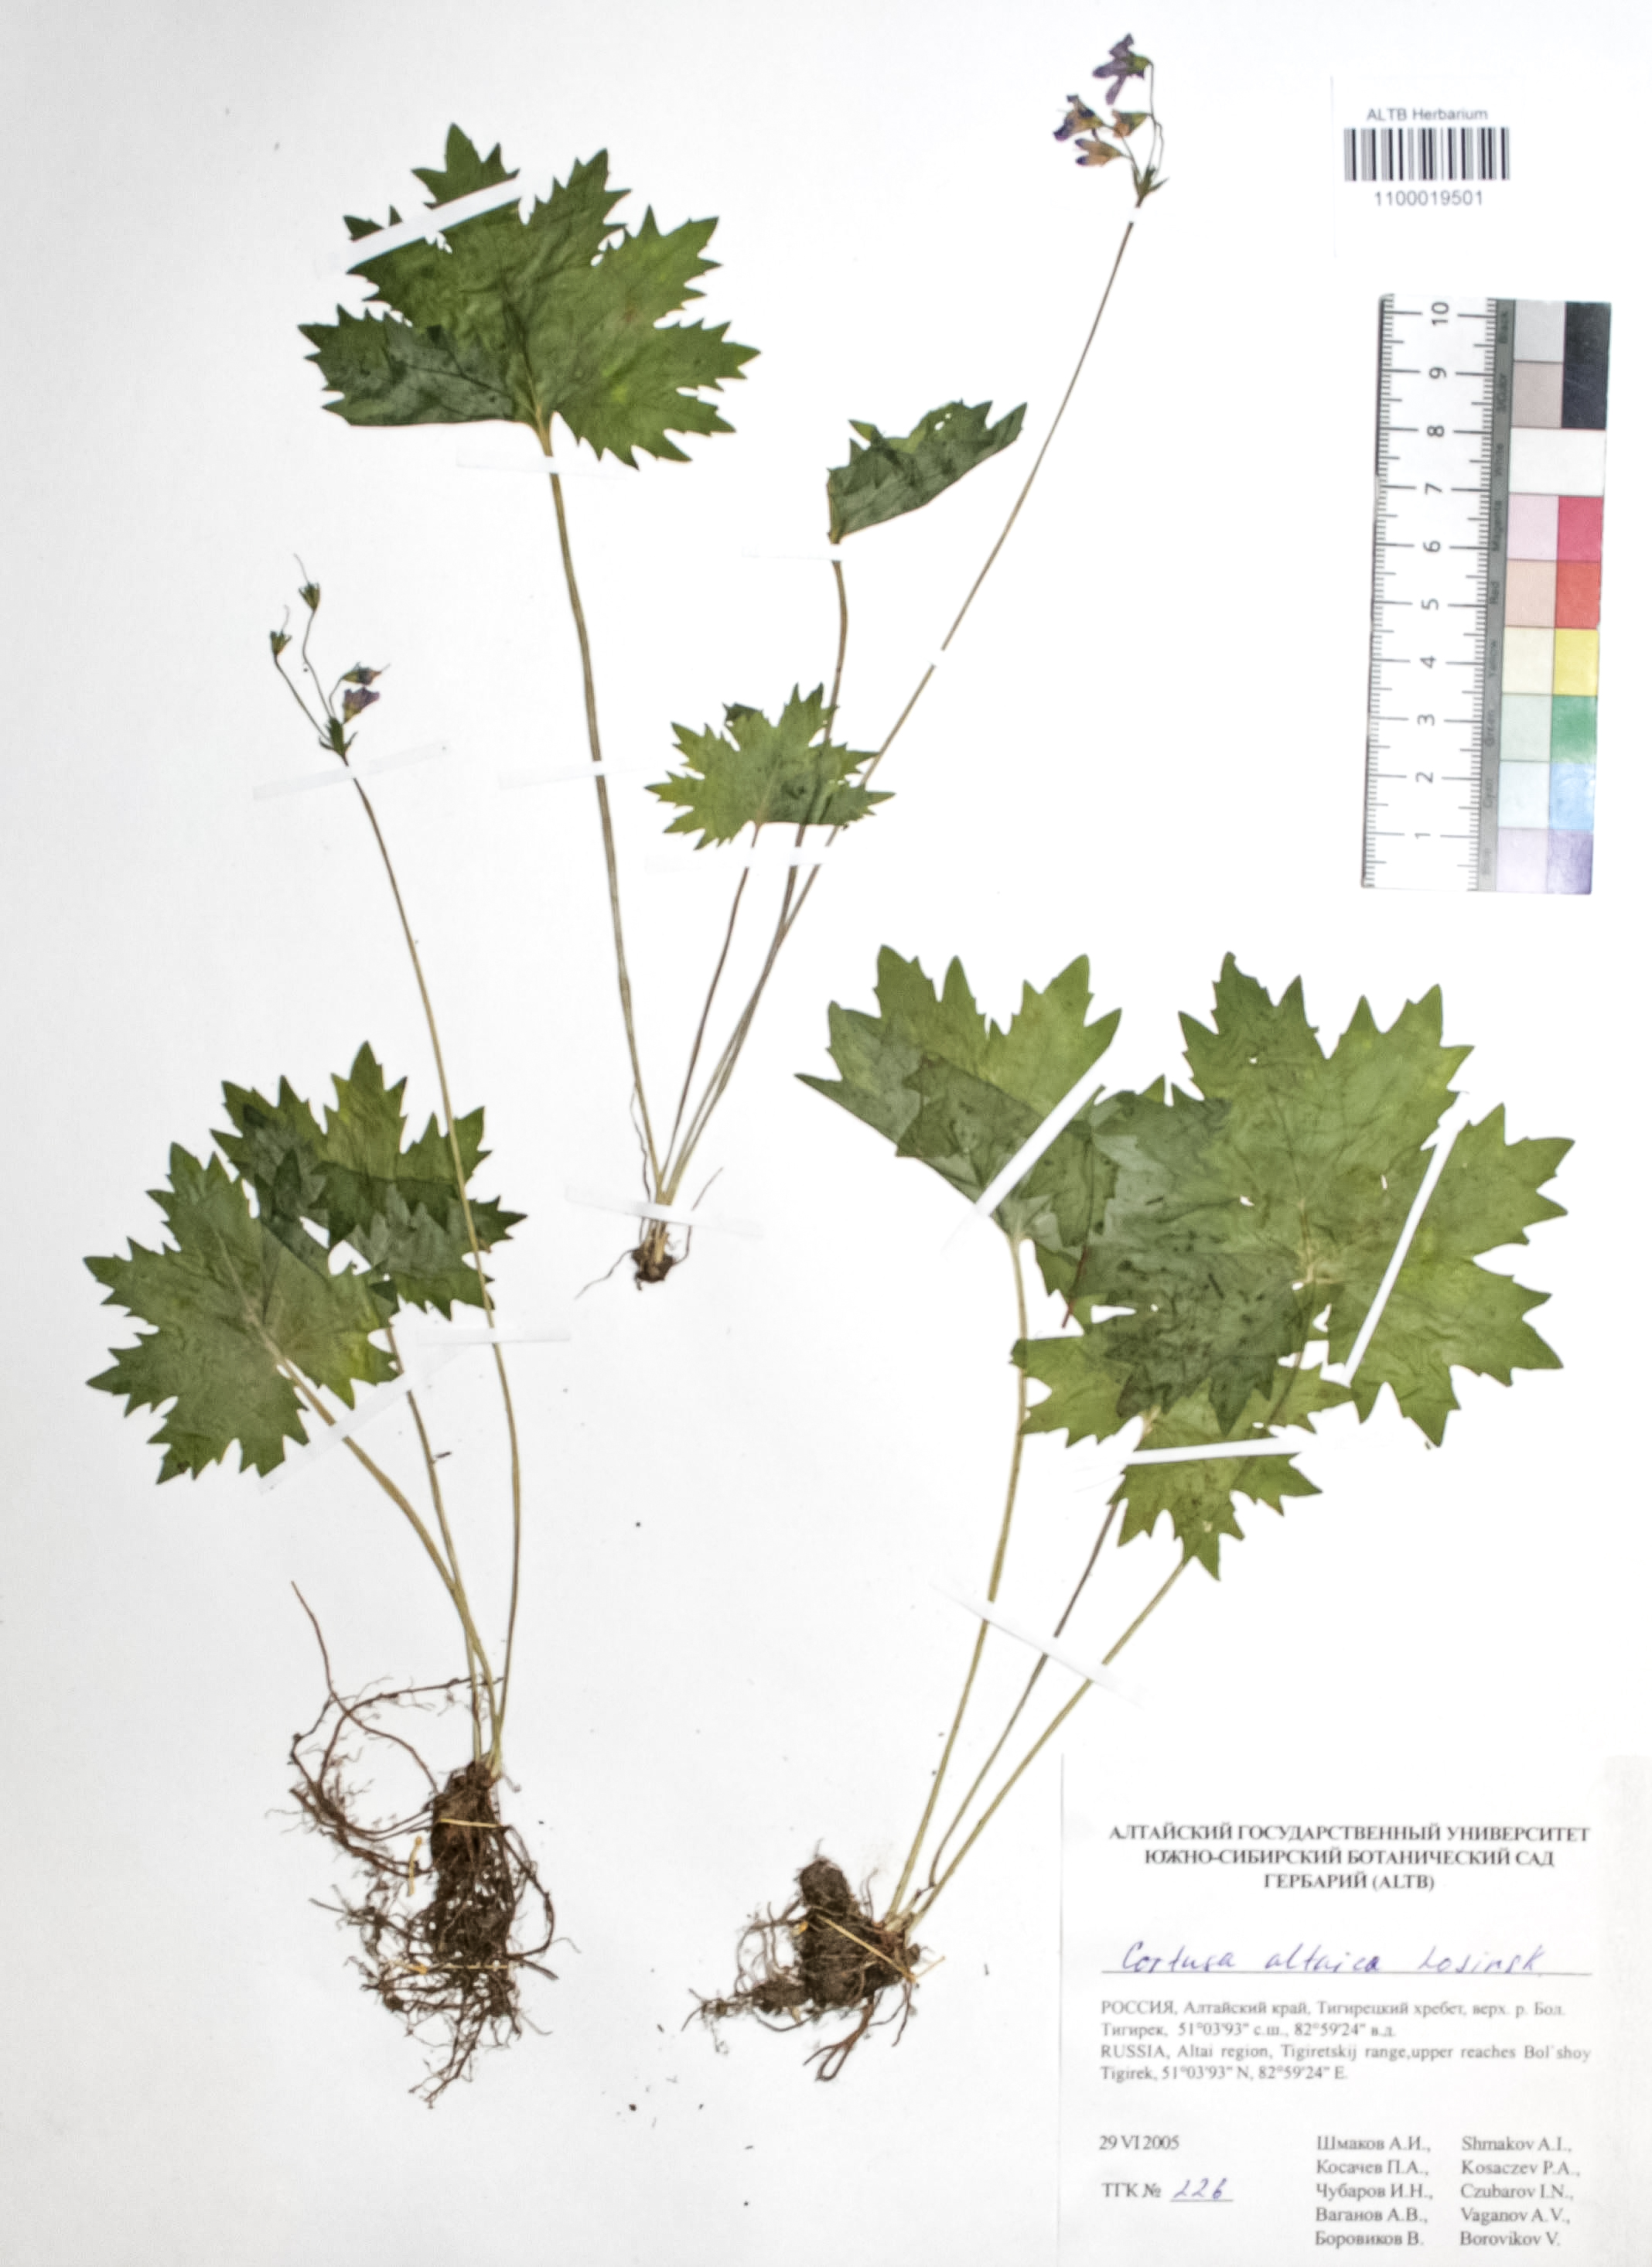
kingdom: Plantae
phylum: Tracheophyta
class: Magnoliopsida
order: Ericales
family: Primulaceae
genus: Primula
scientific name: Primula matthioli
